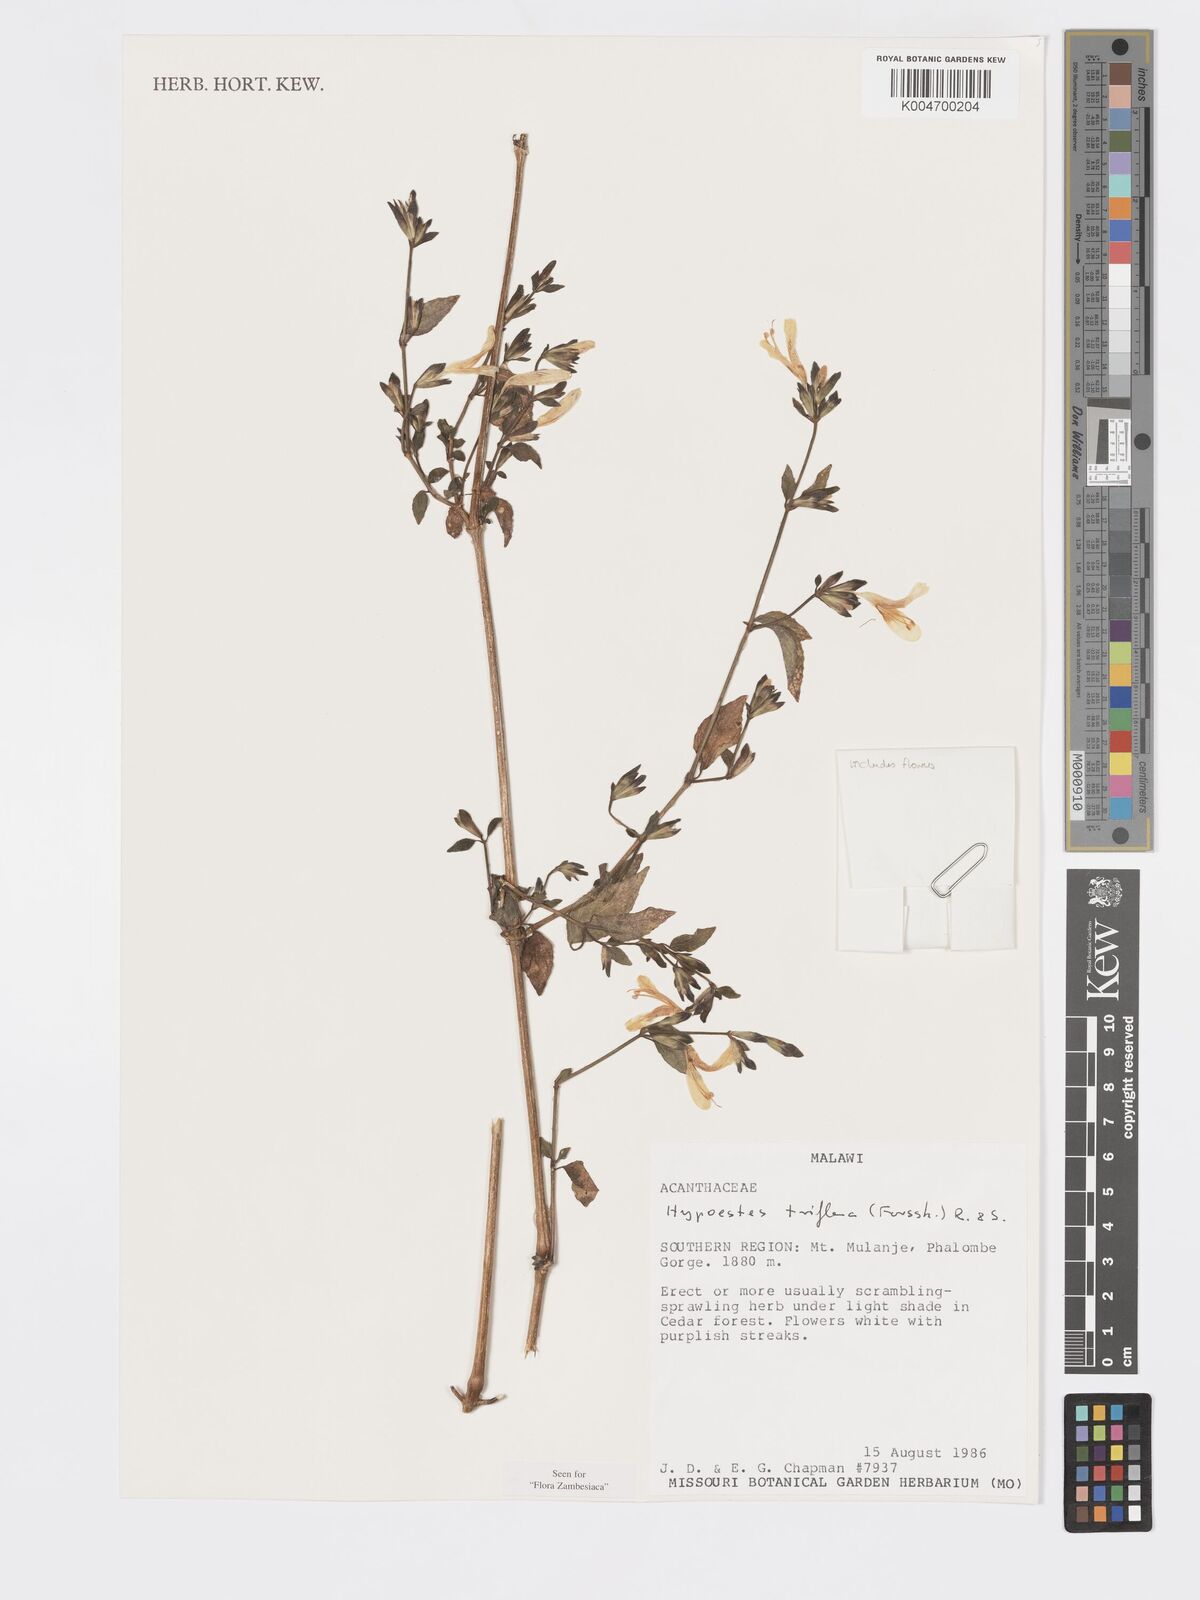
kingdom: Plantae
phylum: Tracheophyta
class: Magnoliopsida
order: Lamiales
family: Acanthaceae
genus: Hypoestes
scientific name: Hypoestes triflora
